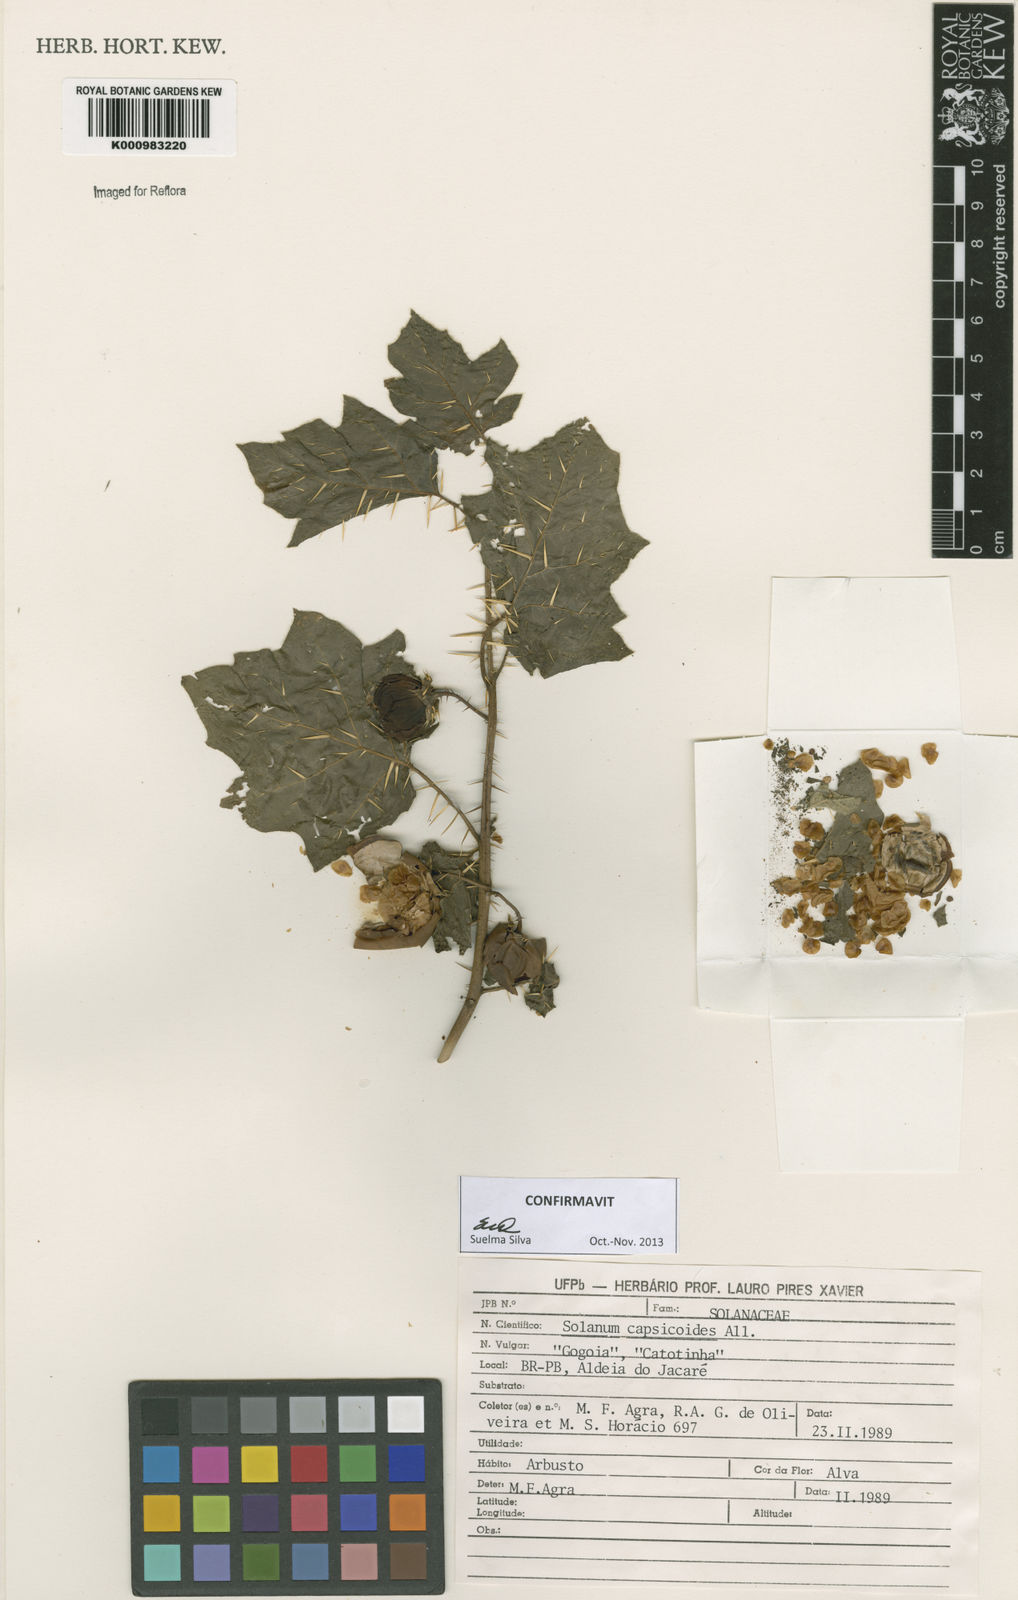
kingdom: Plantae
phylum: Tracheophyta
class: Magnoliopsida
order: Solanales
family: Solanaceae
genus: Solanum
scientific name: Solanum capsicoides
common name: Cockroach berry
